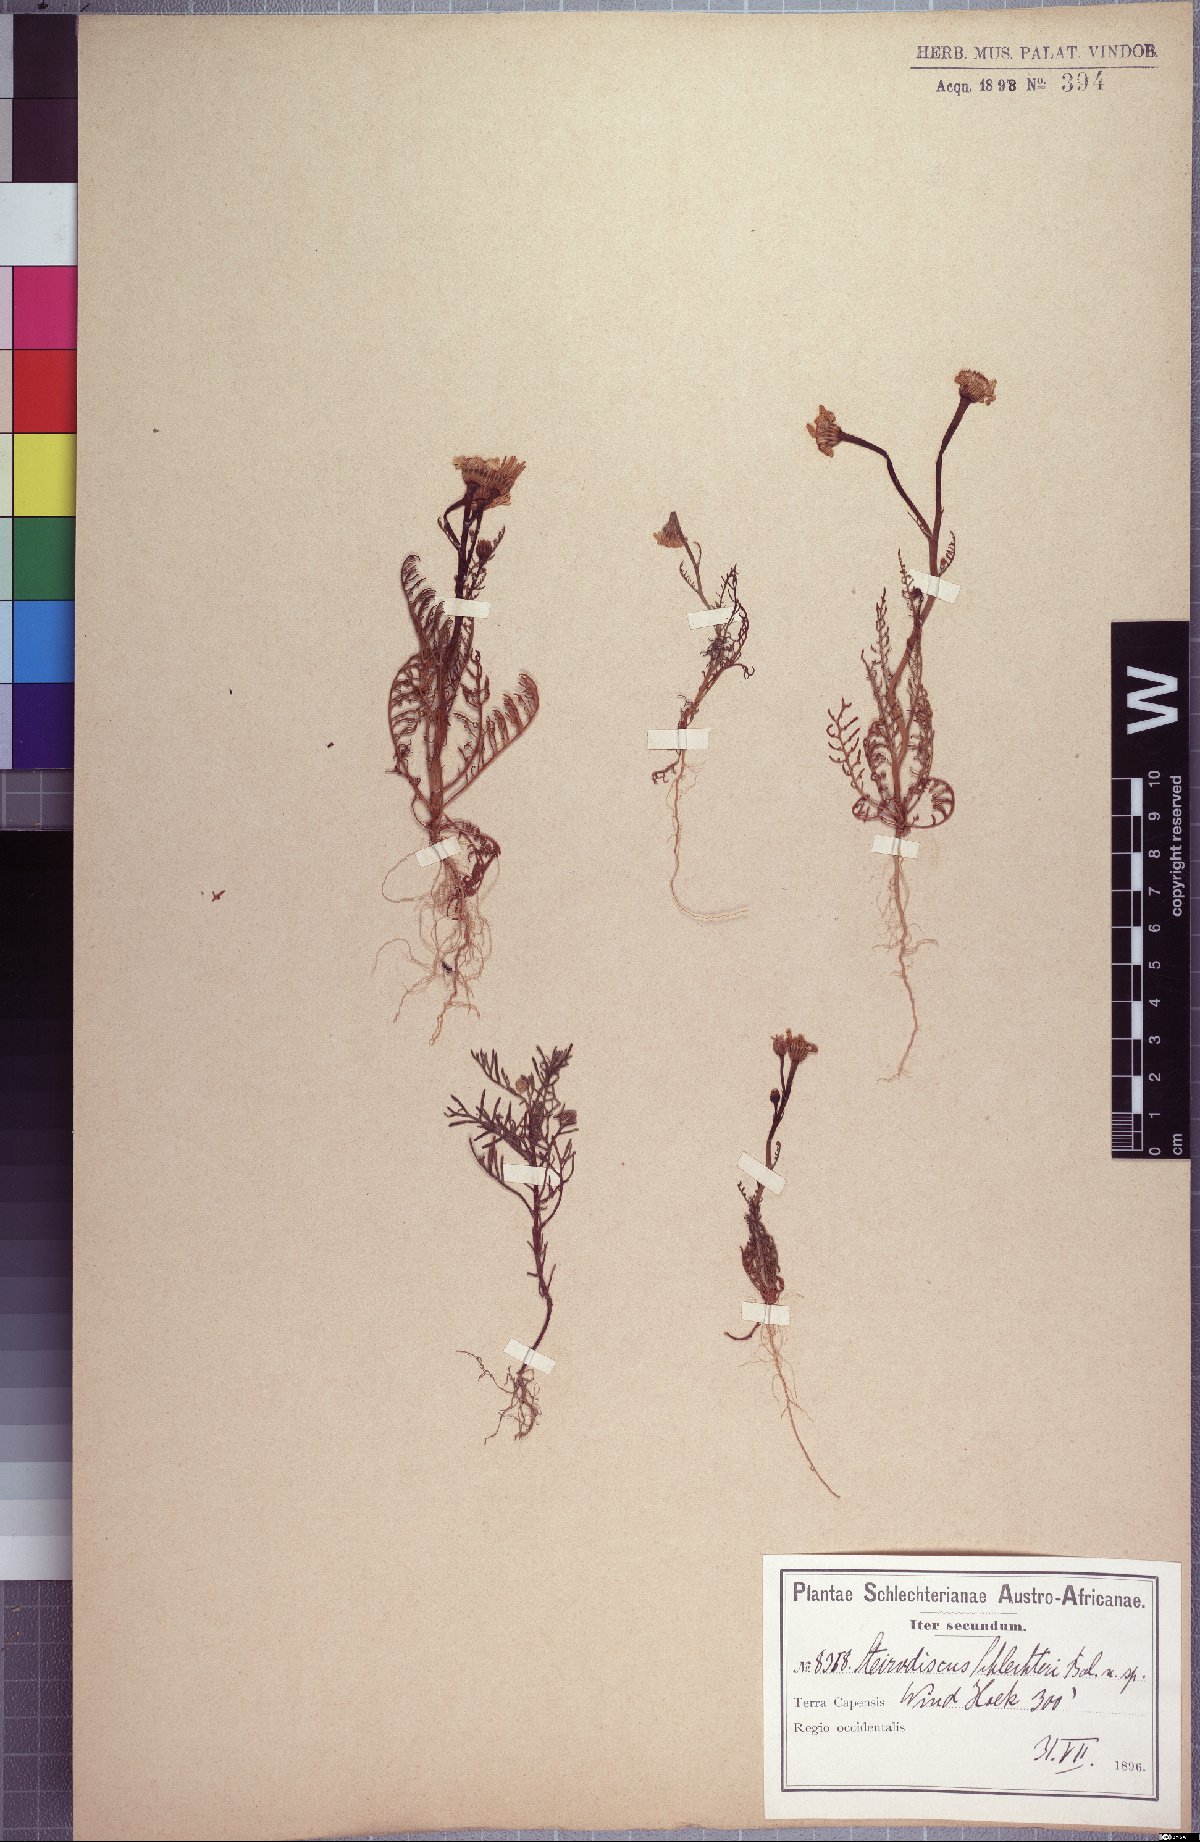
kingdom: Plantae
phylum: Tracheophyta
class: Magnoliopsida
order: Asterales
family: Asteraceae
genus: Steirodiscus
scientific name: Steirodiscus schlechteri
